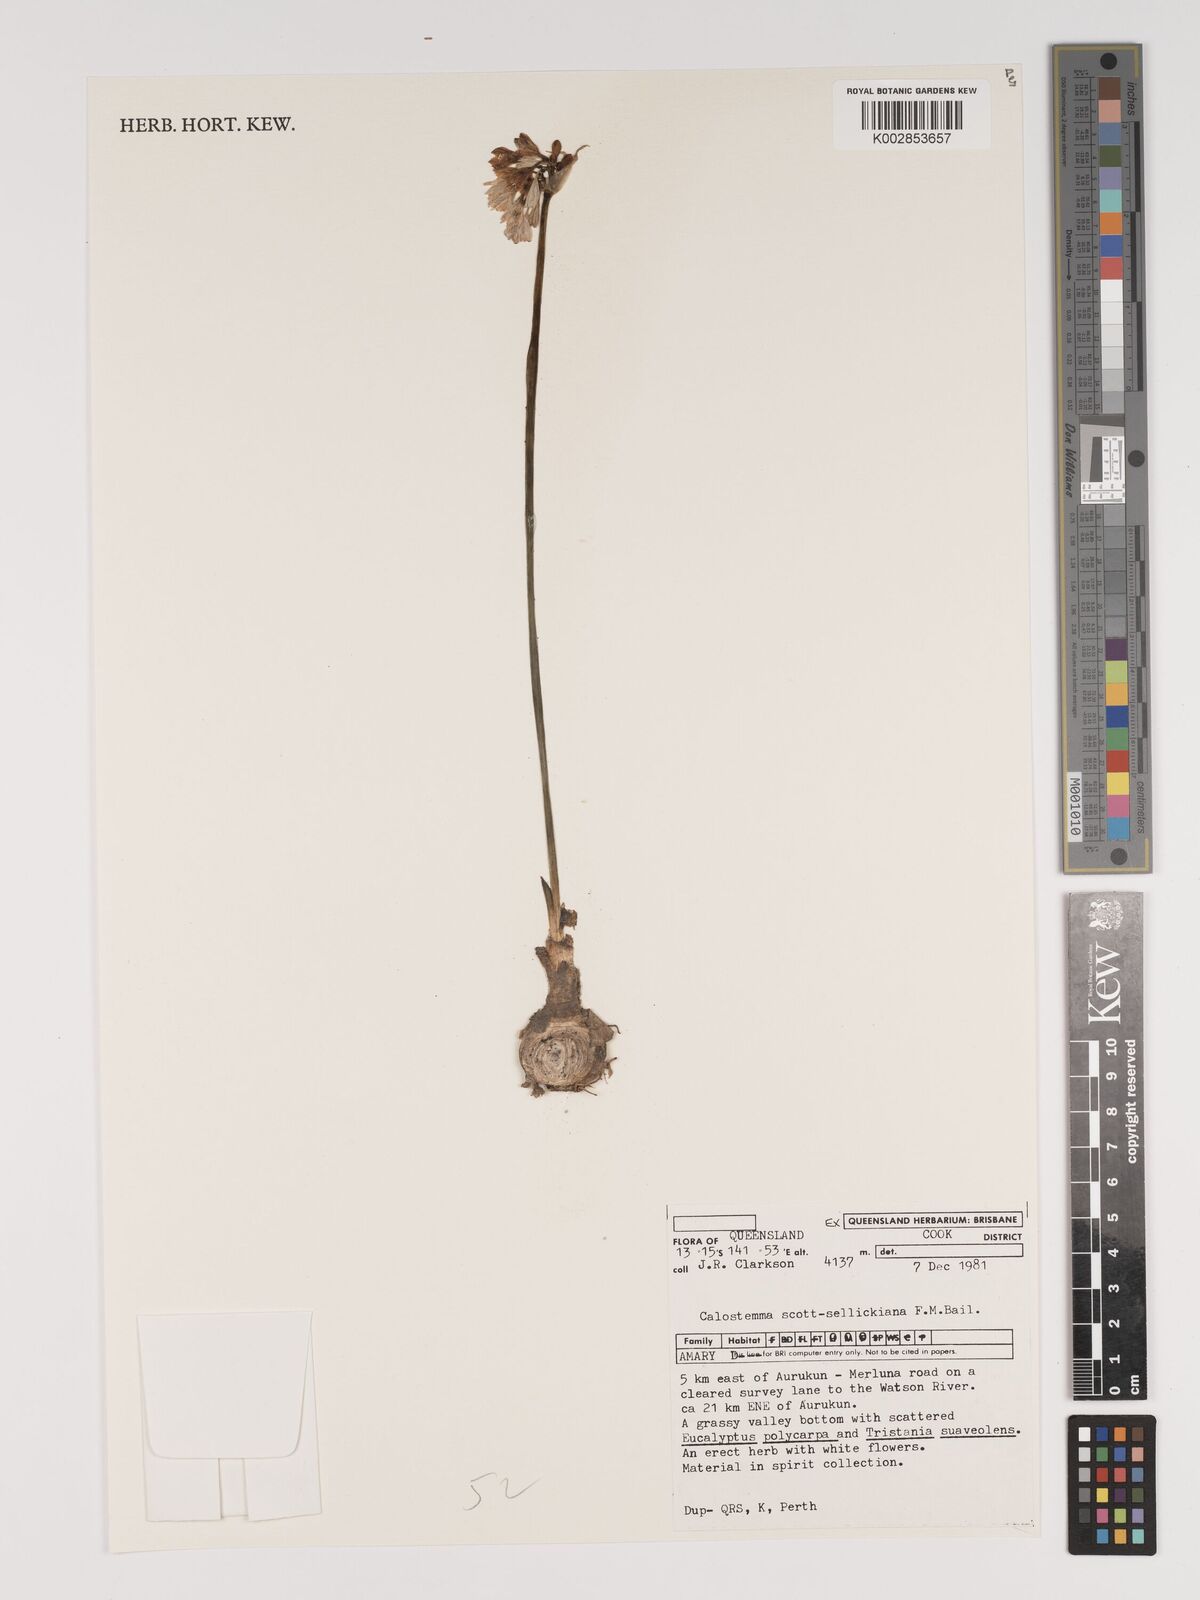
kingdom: Plantae
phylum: Tracheophyta
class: Liliopsida
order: Asparagales
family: Amaryllidaceae
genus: Proiphys
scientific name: Proiphys alba
